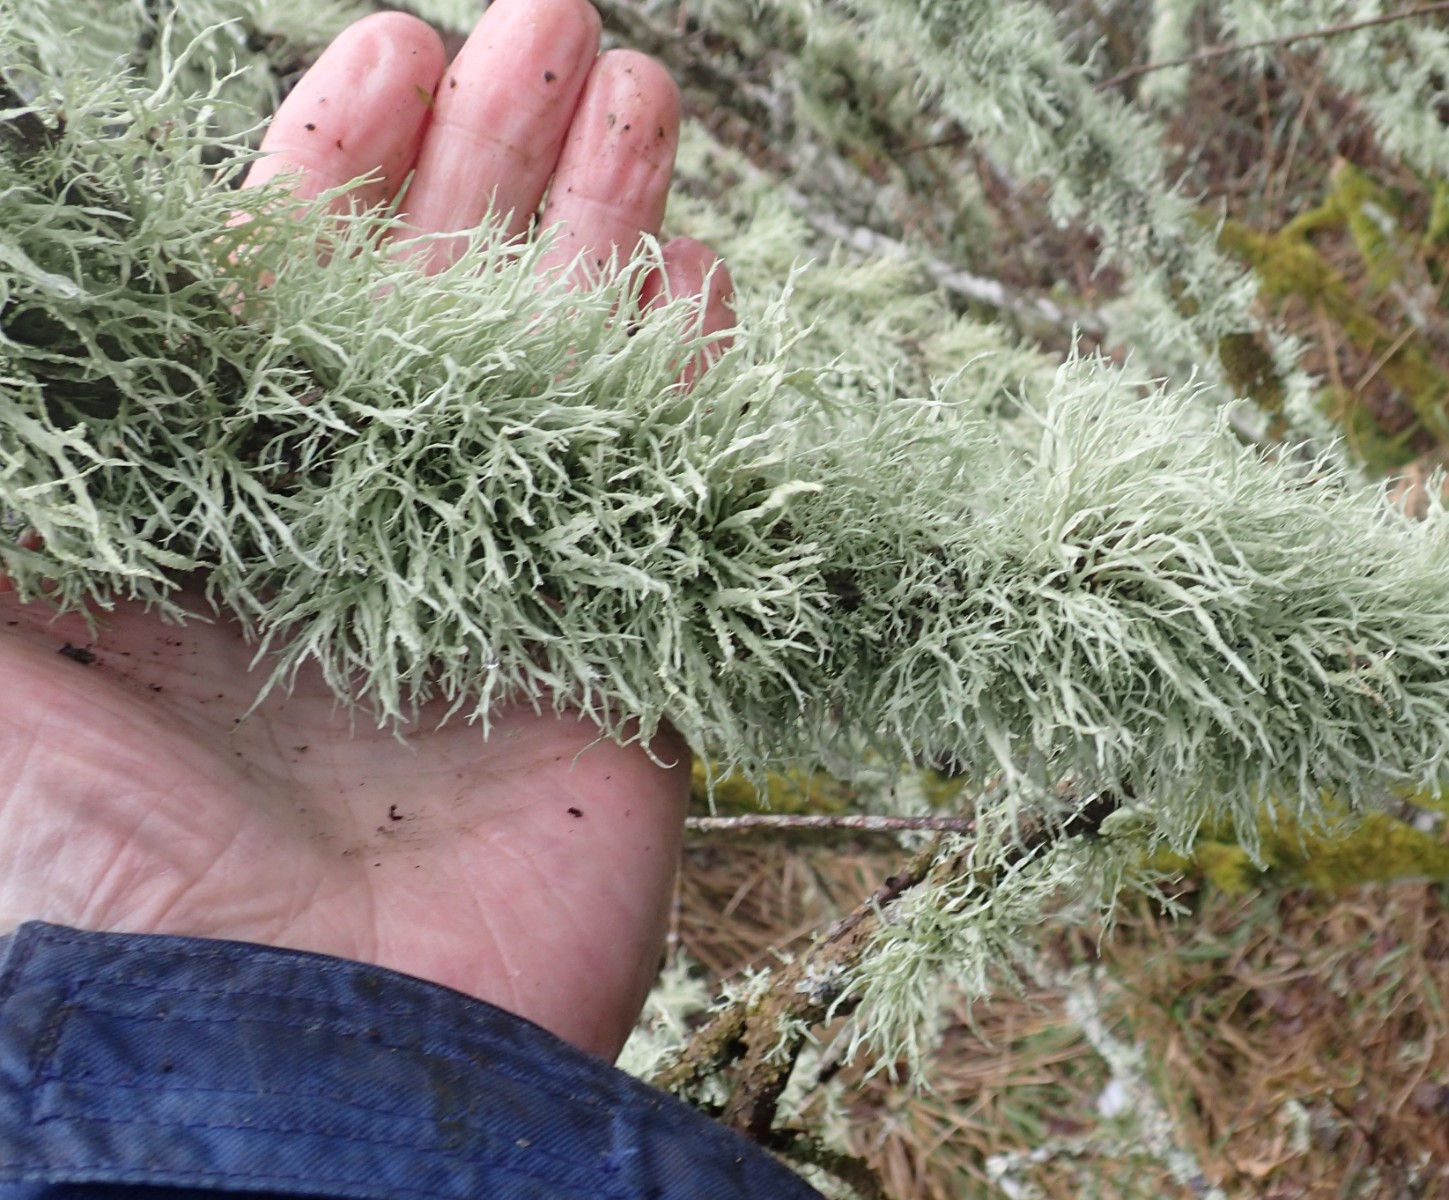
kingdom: Fungi
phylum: Ascomycota
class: Lecanoromycetes
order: Lecanorales
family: Parmeliaceae
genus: Evernia
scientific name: Evernia prunastri
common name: almindelig slåenlav
